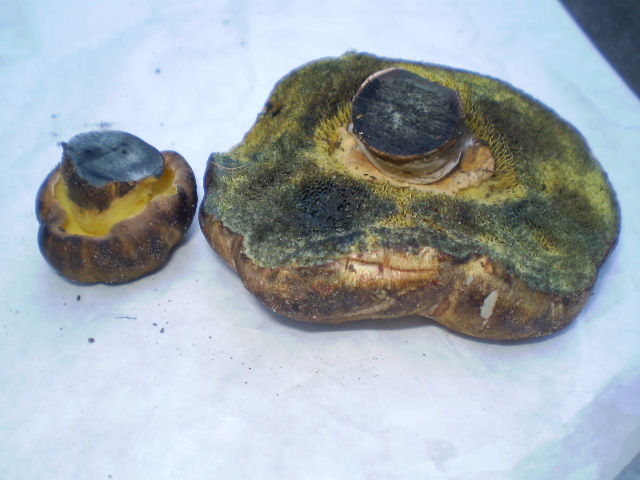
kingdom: Fungi
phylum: Basidiomycota
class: Agaricomycetes
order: Boletales
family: Boletaceae
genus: Cyanoboletus
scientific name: Cyanoboletus pulverulentus
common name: sortblånende rørhat
